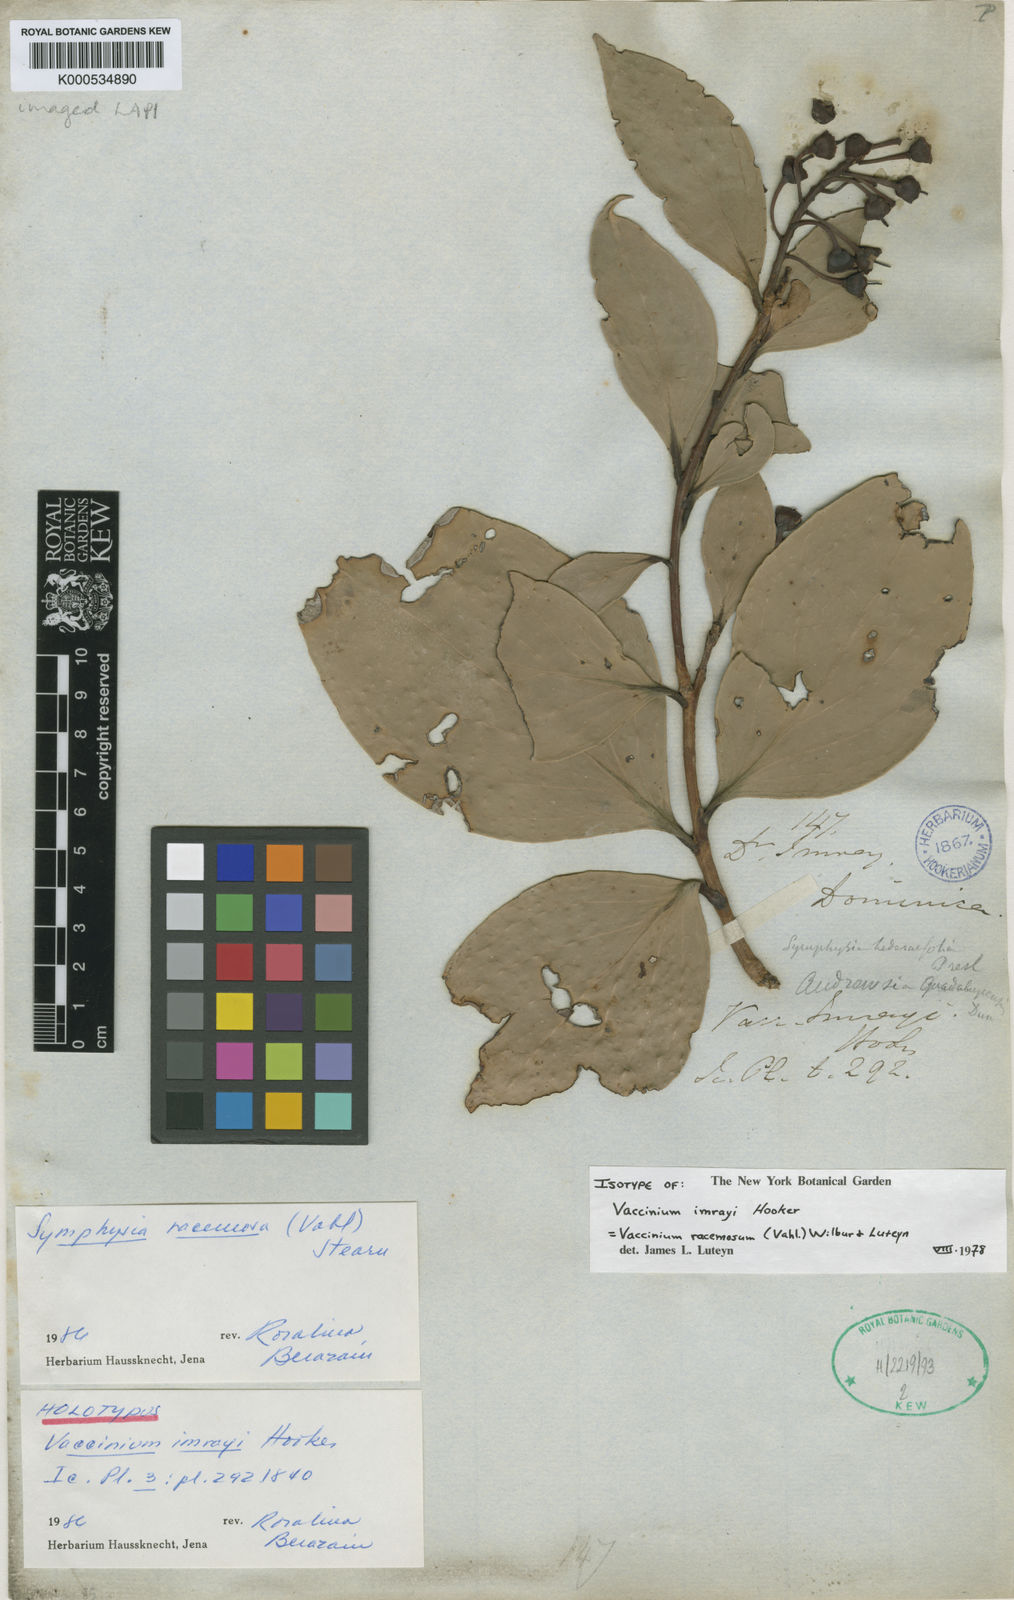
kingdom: Plantae
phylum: Tracheophyta
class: Magnoliopsida
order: Ericales
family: Ericaceae
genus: Symphysia
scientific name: Symphysia racemosa
